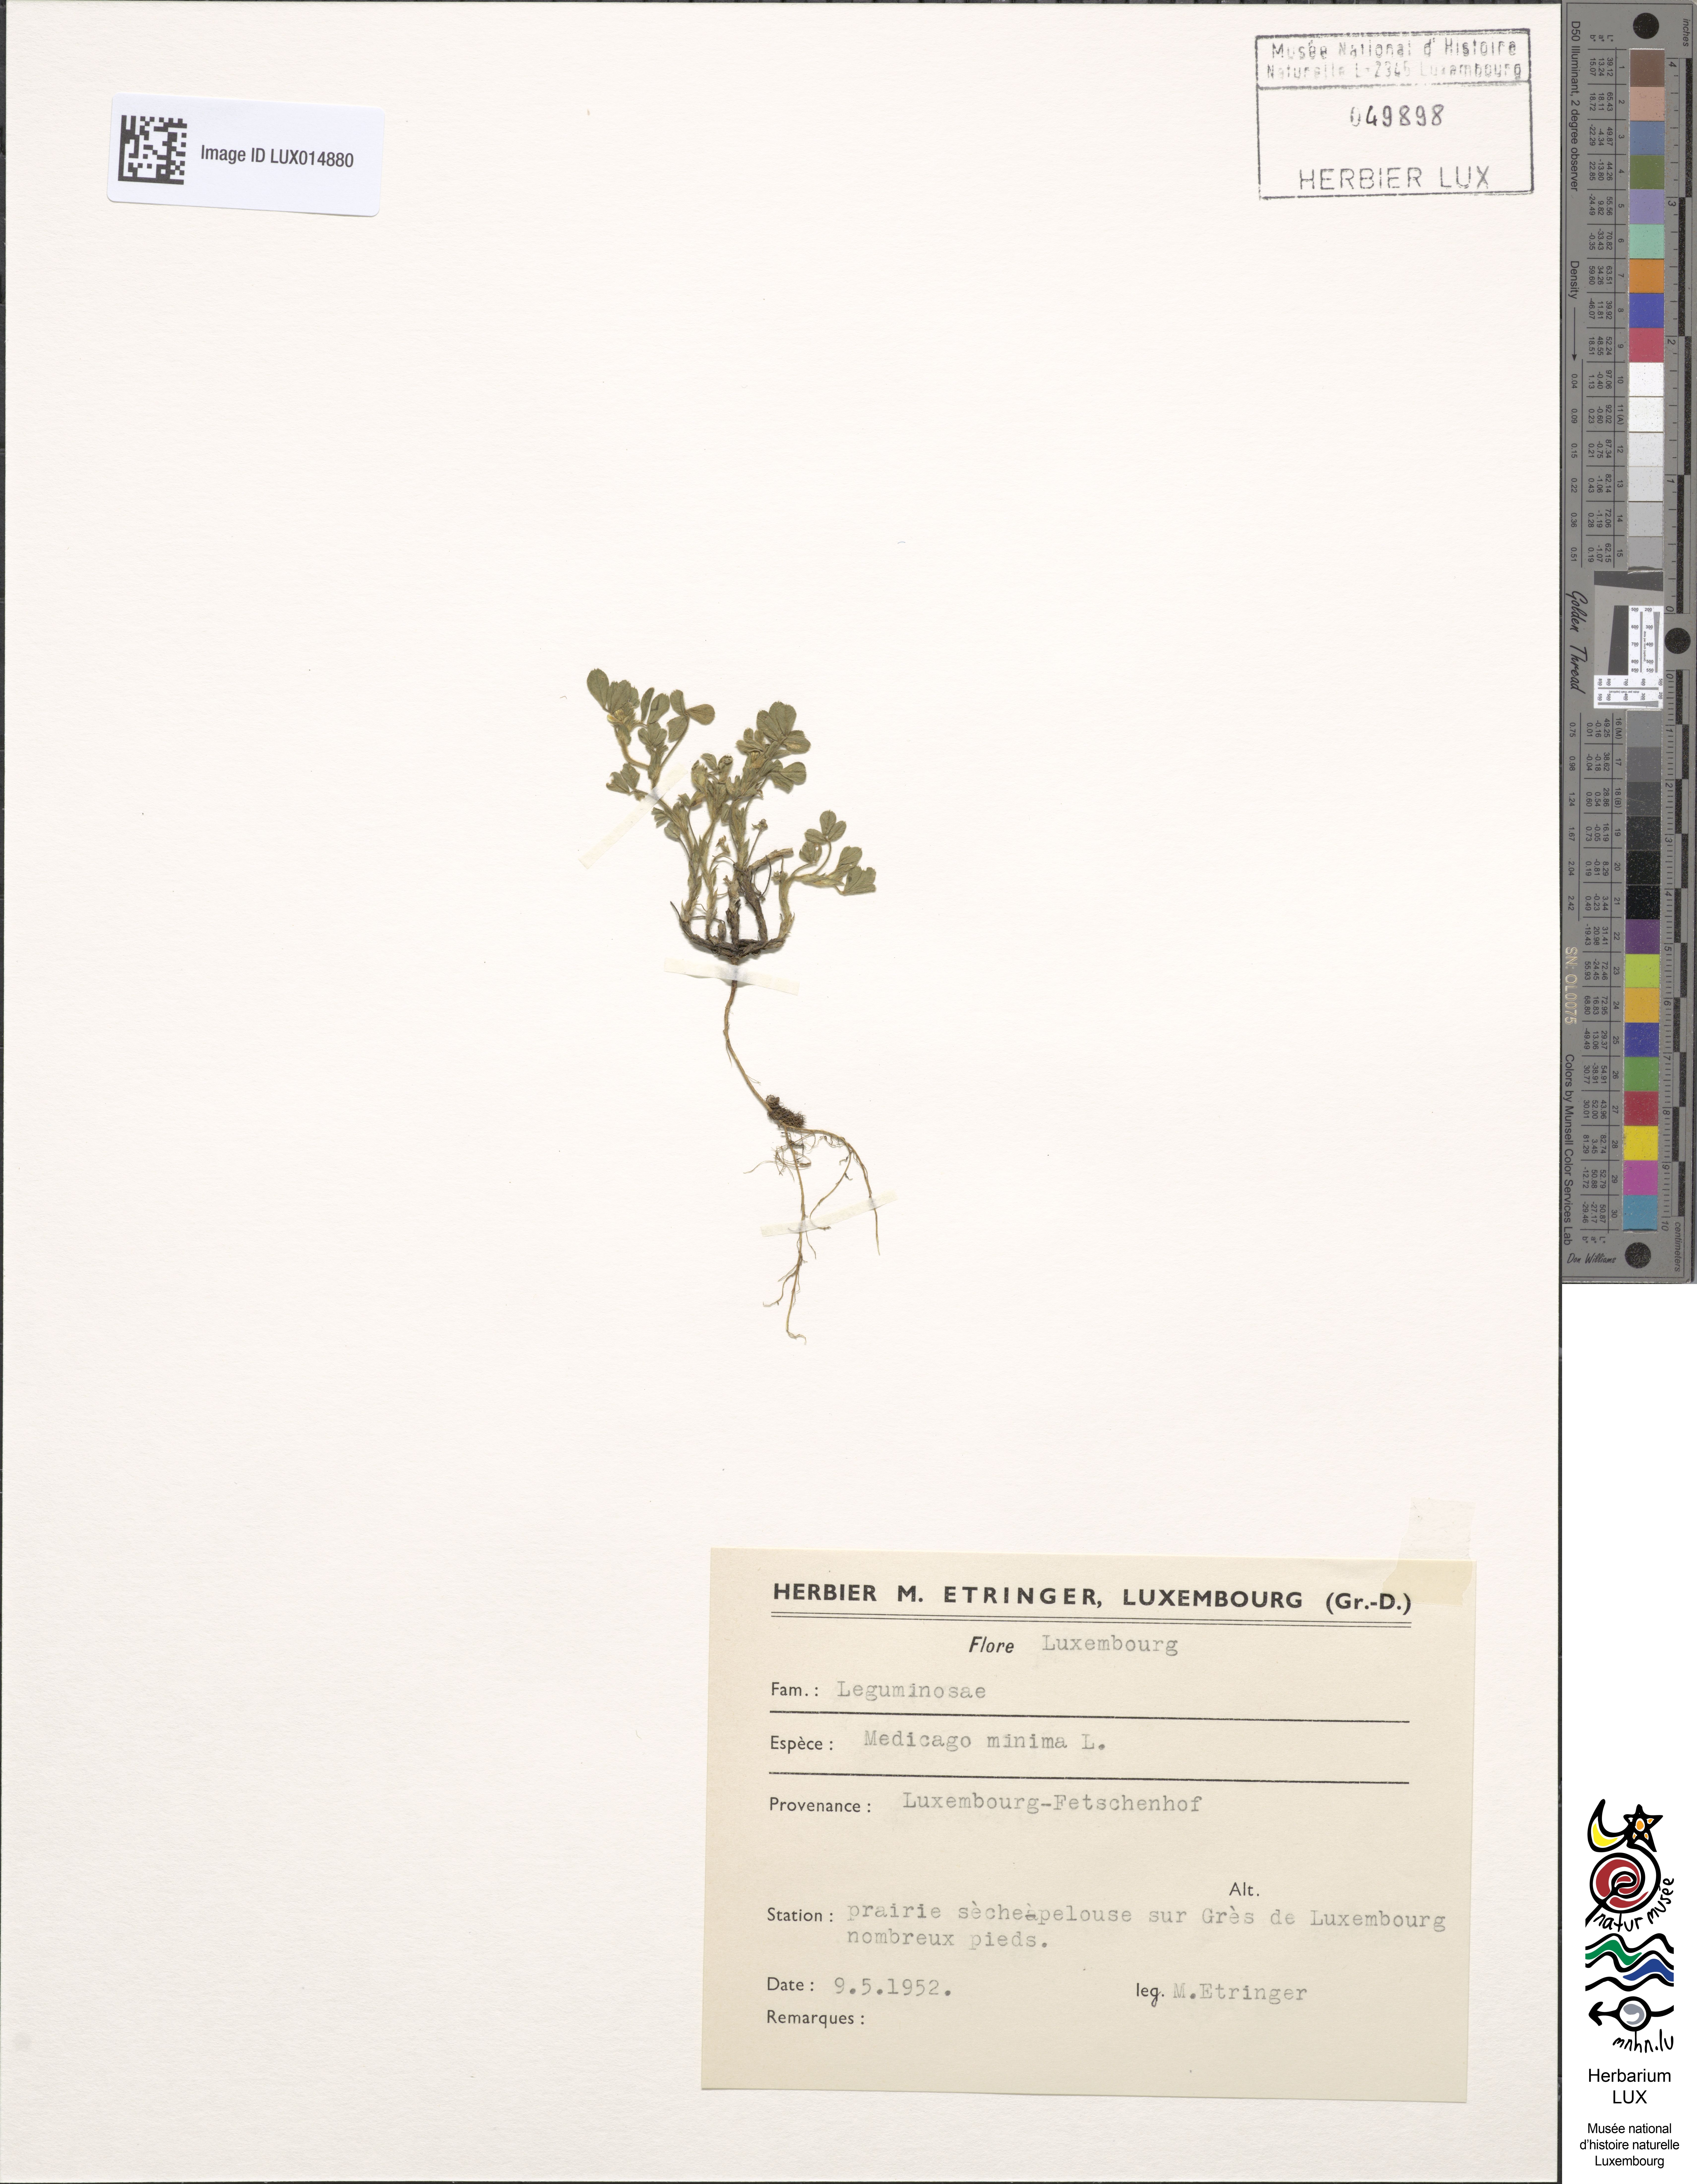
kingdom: Plantae
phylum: Tracheophyta
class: Magnoliopsida
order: Fabales
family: Fabaceae
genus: Medicago
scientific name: Medicago minima
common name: Little bur-clover
